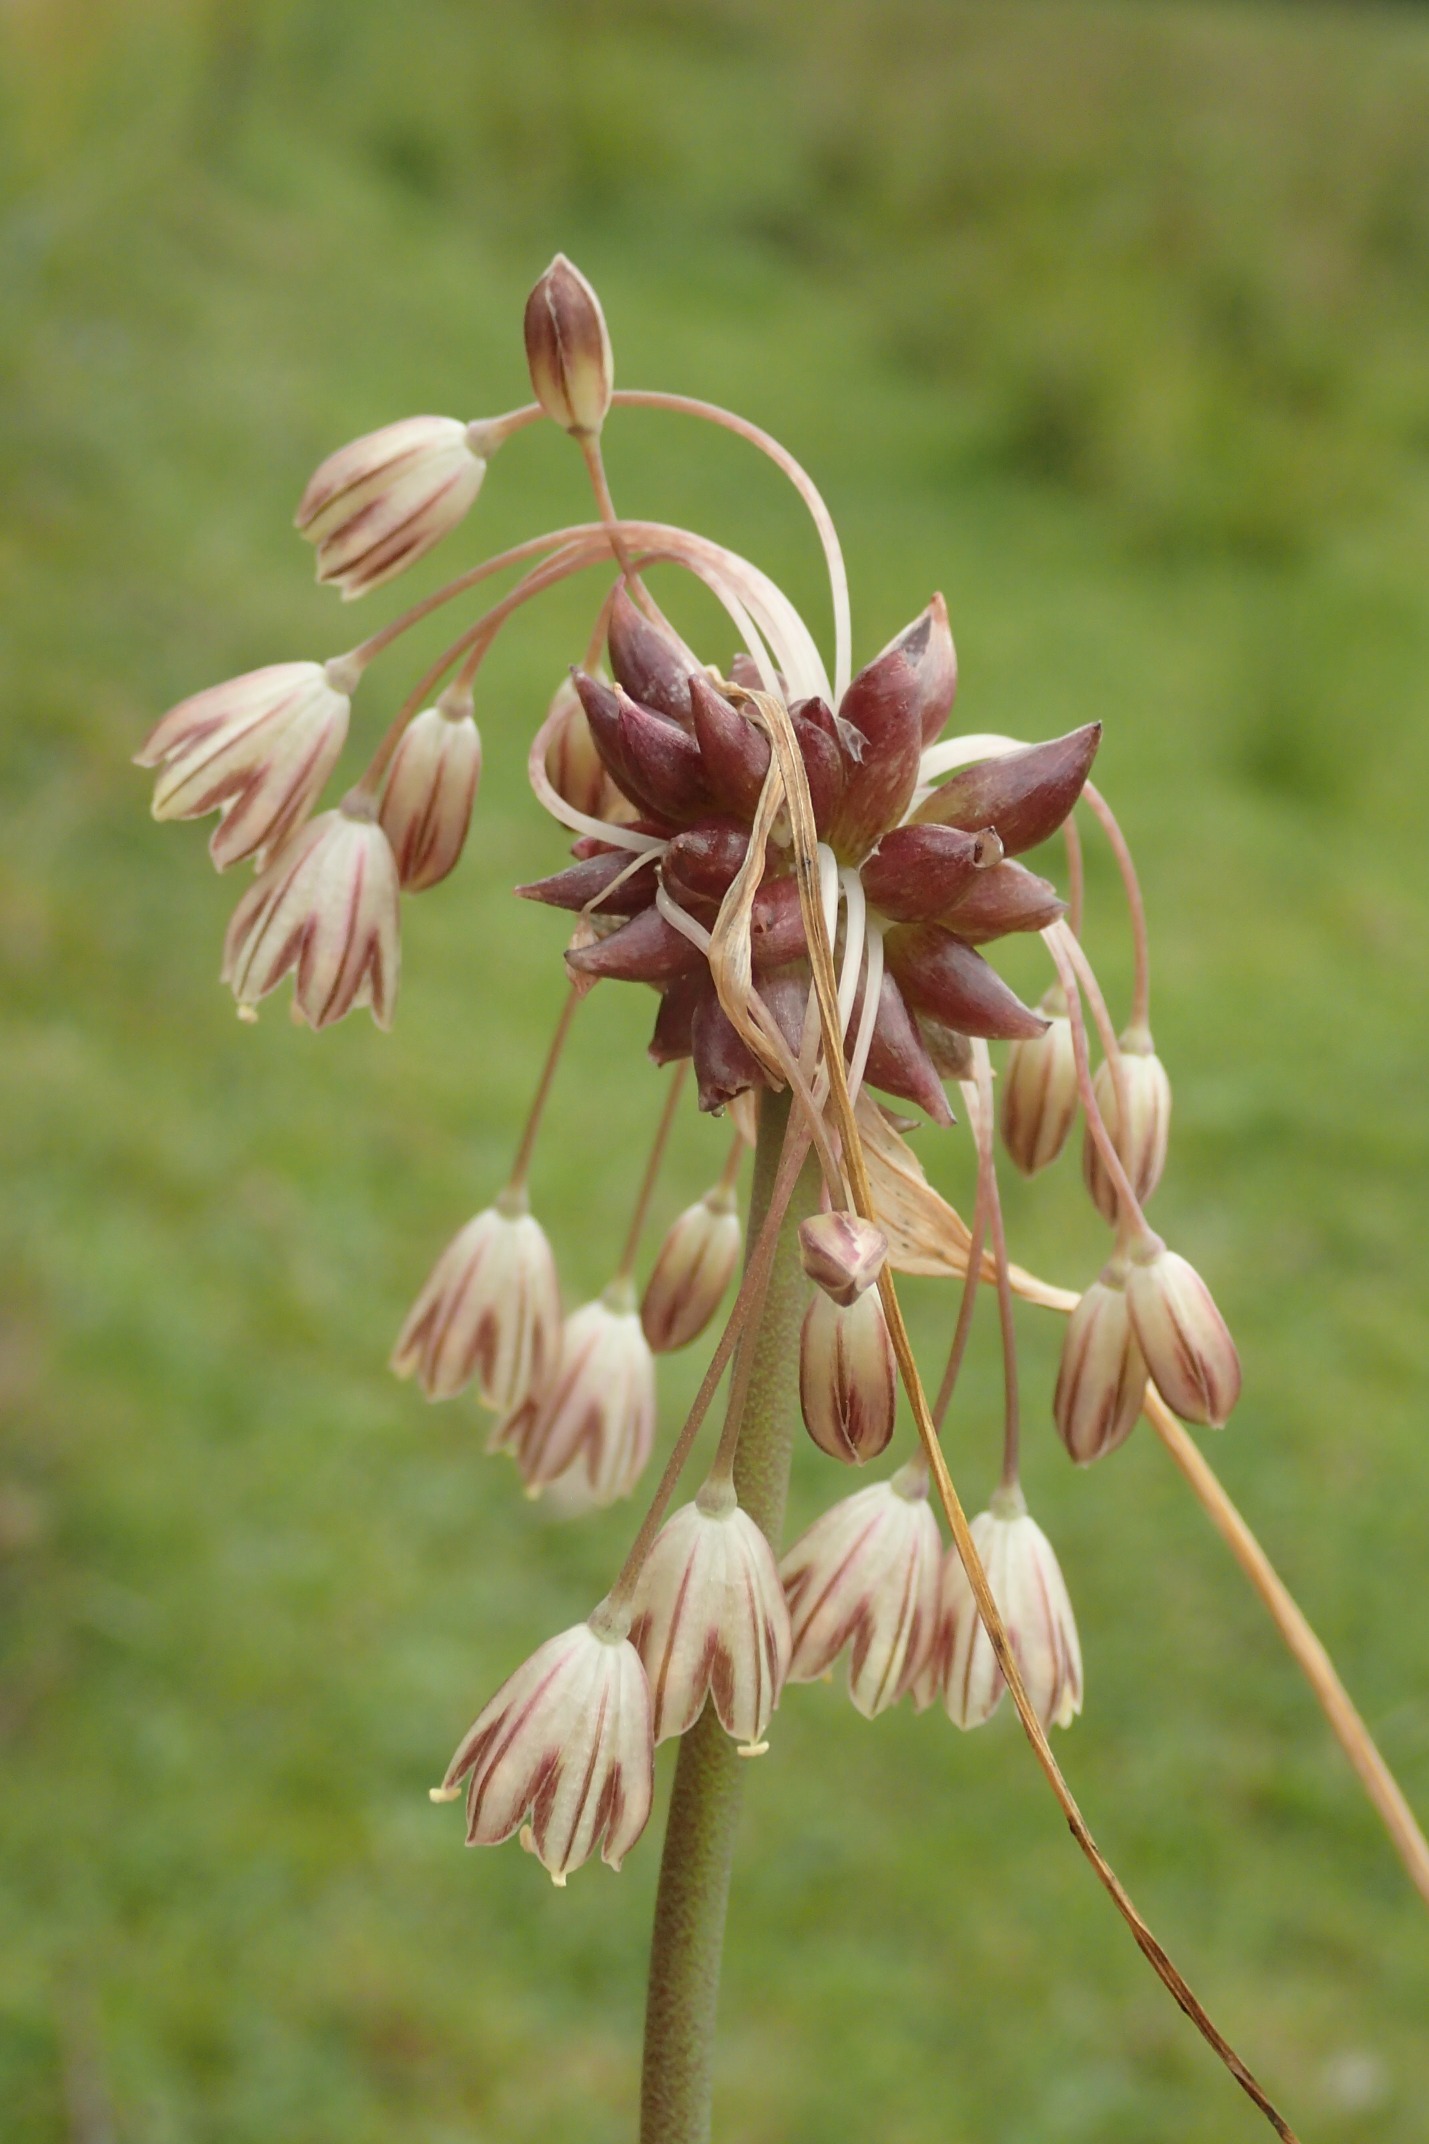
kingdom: Plantae
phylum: Tracheophyta
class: Liliopsida
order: Asparagales
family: Amaryllidaceae
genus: Allium
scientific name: Allium oleraceum
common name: Vild løg
